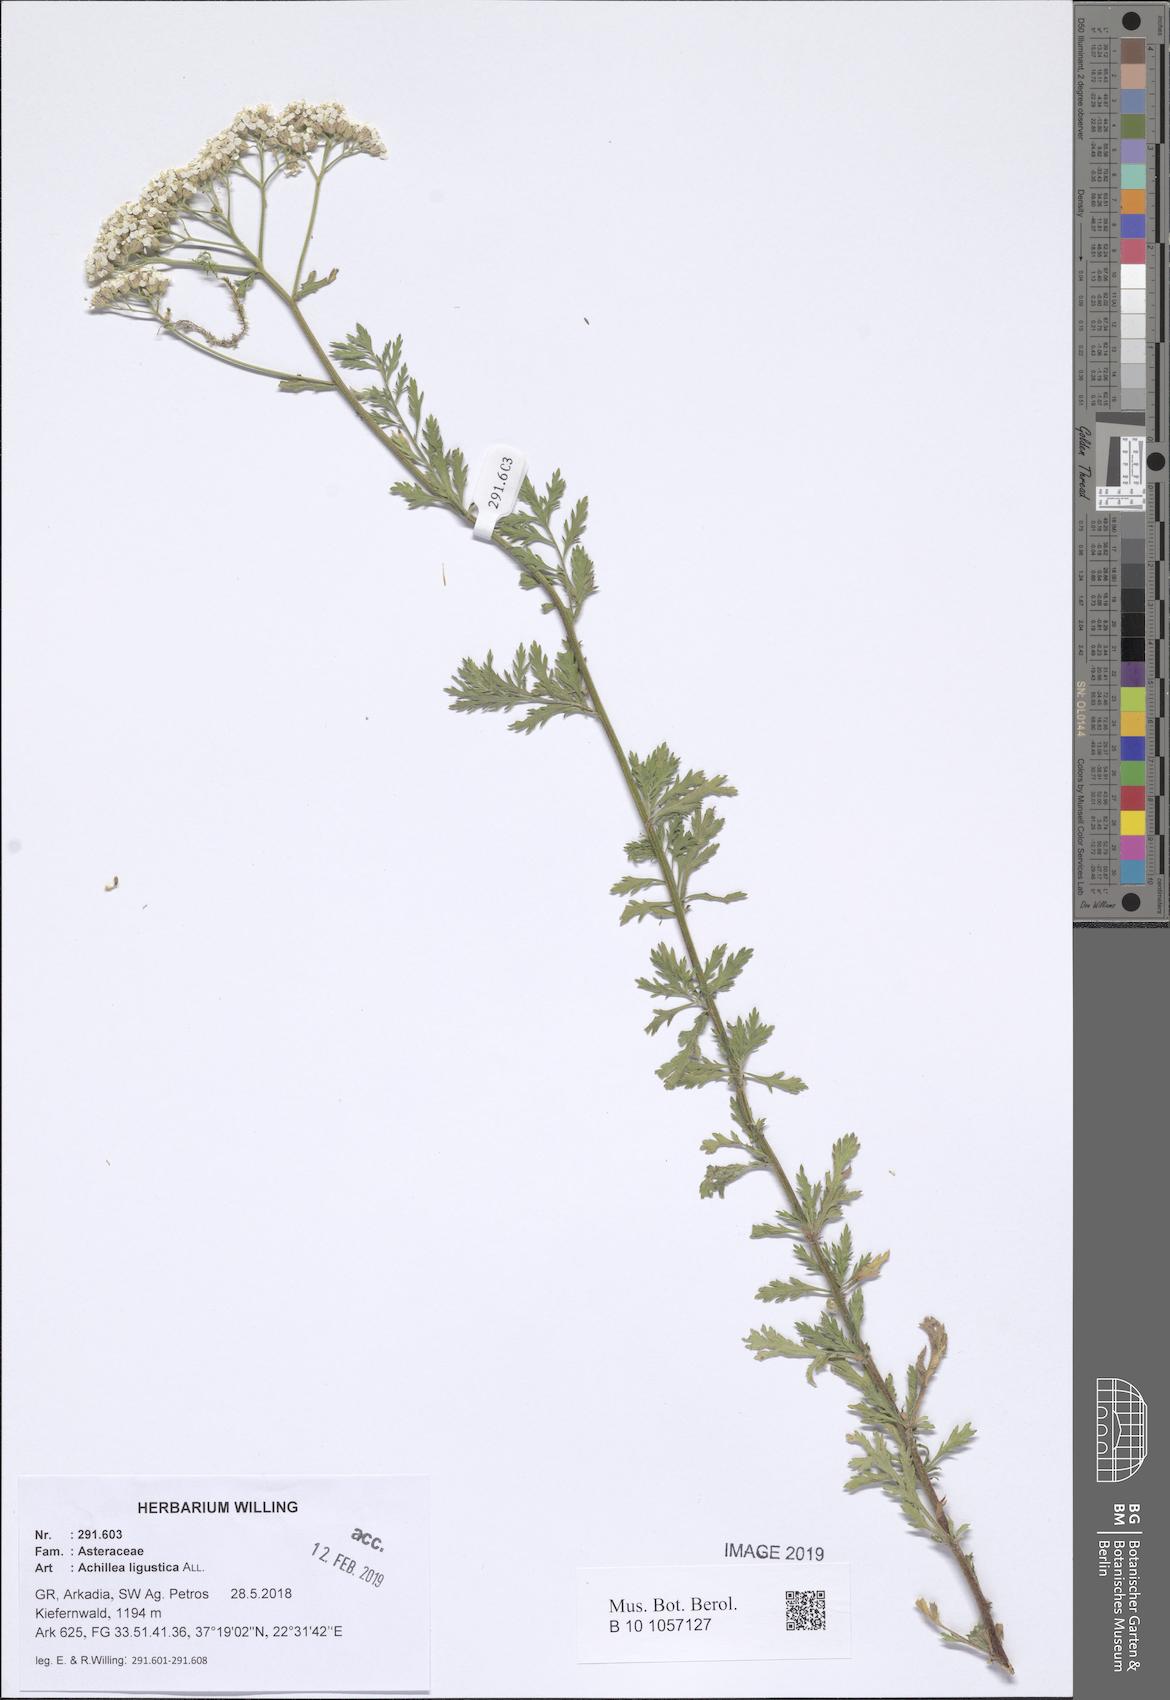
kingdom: Plantae
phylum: Tracheophyta
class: Magnoliopsida
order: Asterales
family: Asteraceae
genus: Achillea
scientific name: Achillea ligustica
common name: Southern yarrow
